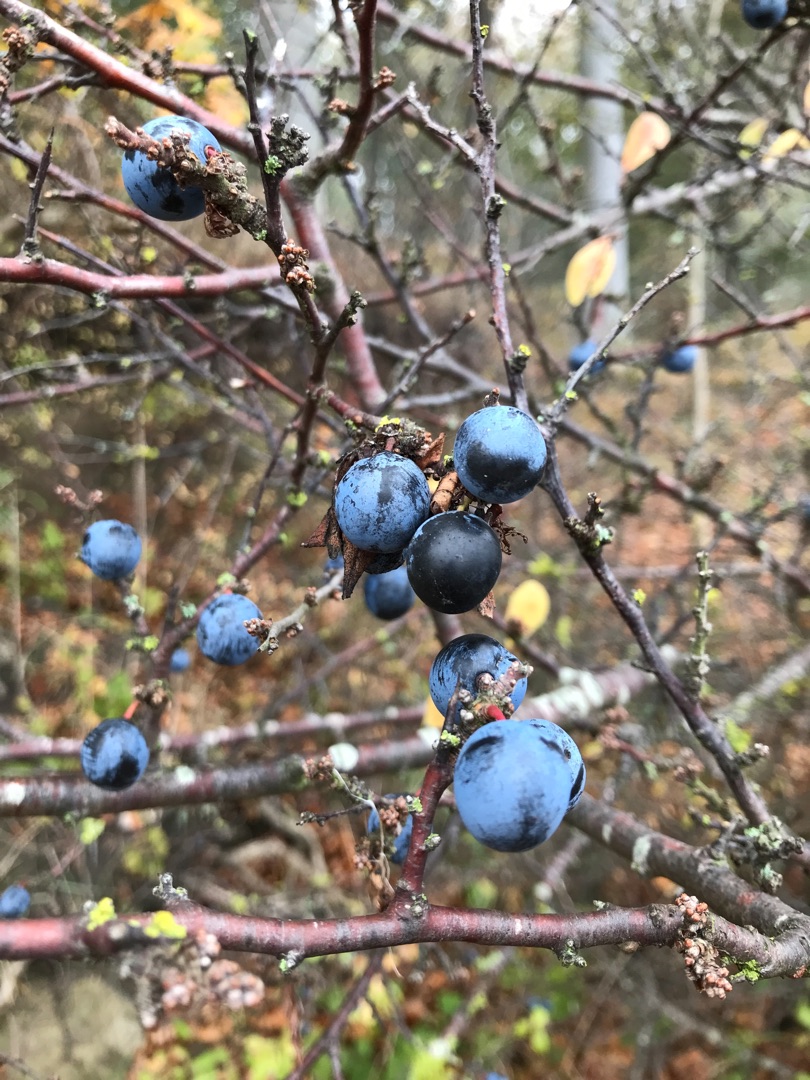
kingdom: Plantae
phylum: Tracheophyta
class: Magnoliopsida
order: Rosales
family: Rosaceae
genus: Prunus
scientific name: Prunus spinosa
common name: Slåen
